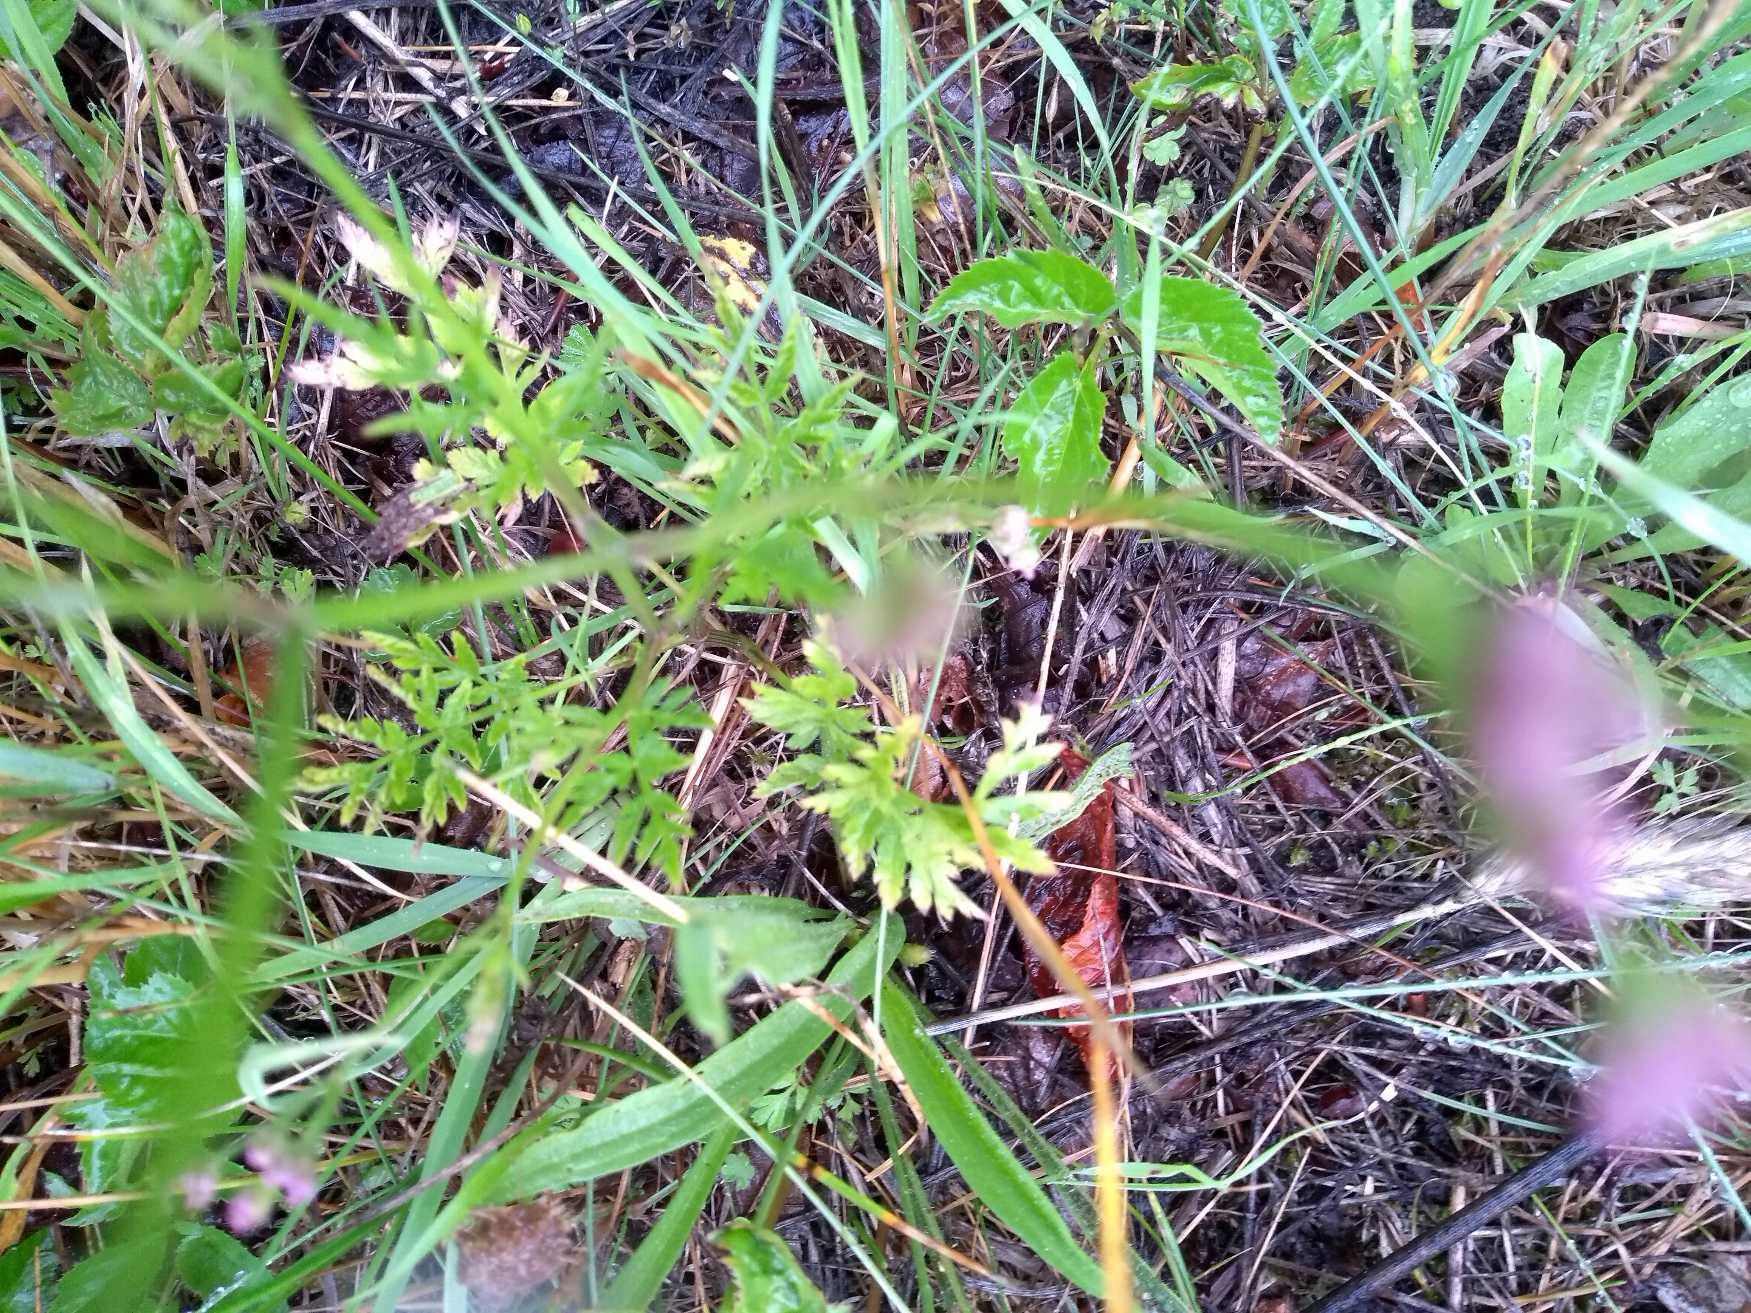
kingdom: Plantae
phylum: Tracheophyta
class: Magnoliopsida
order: Apiales
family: Apiaceae
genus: Torilis
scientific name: Torilis japonica
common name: Hvas randfrø
